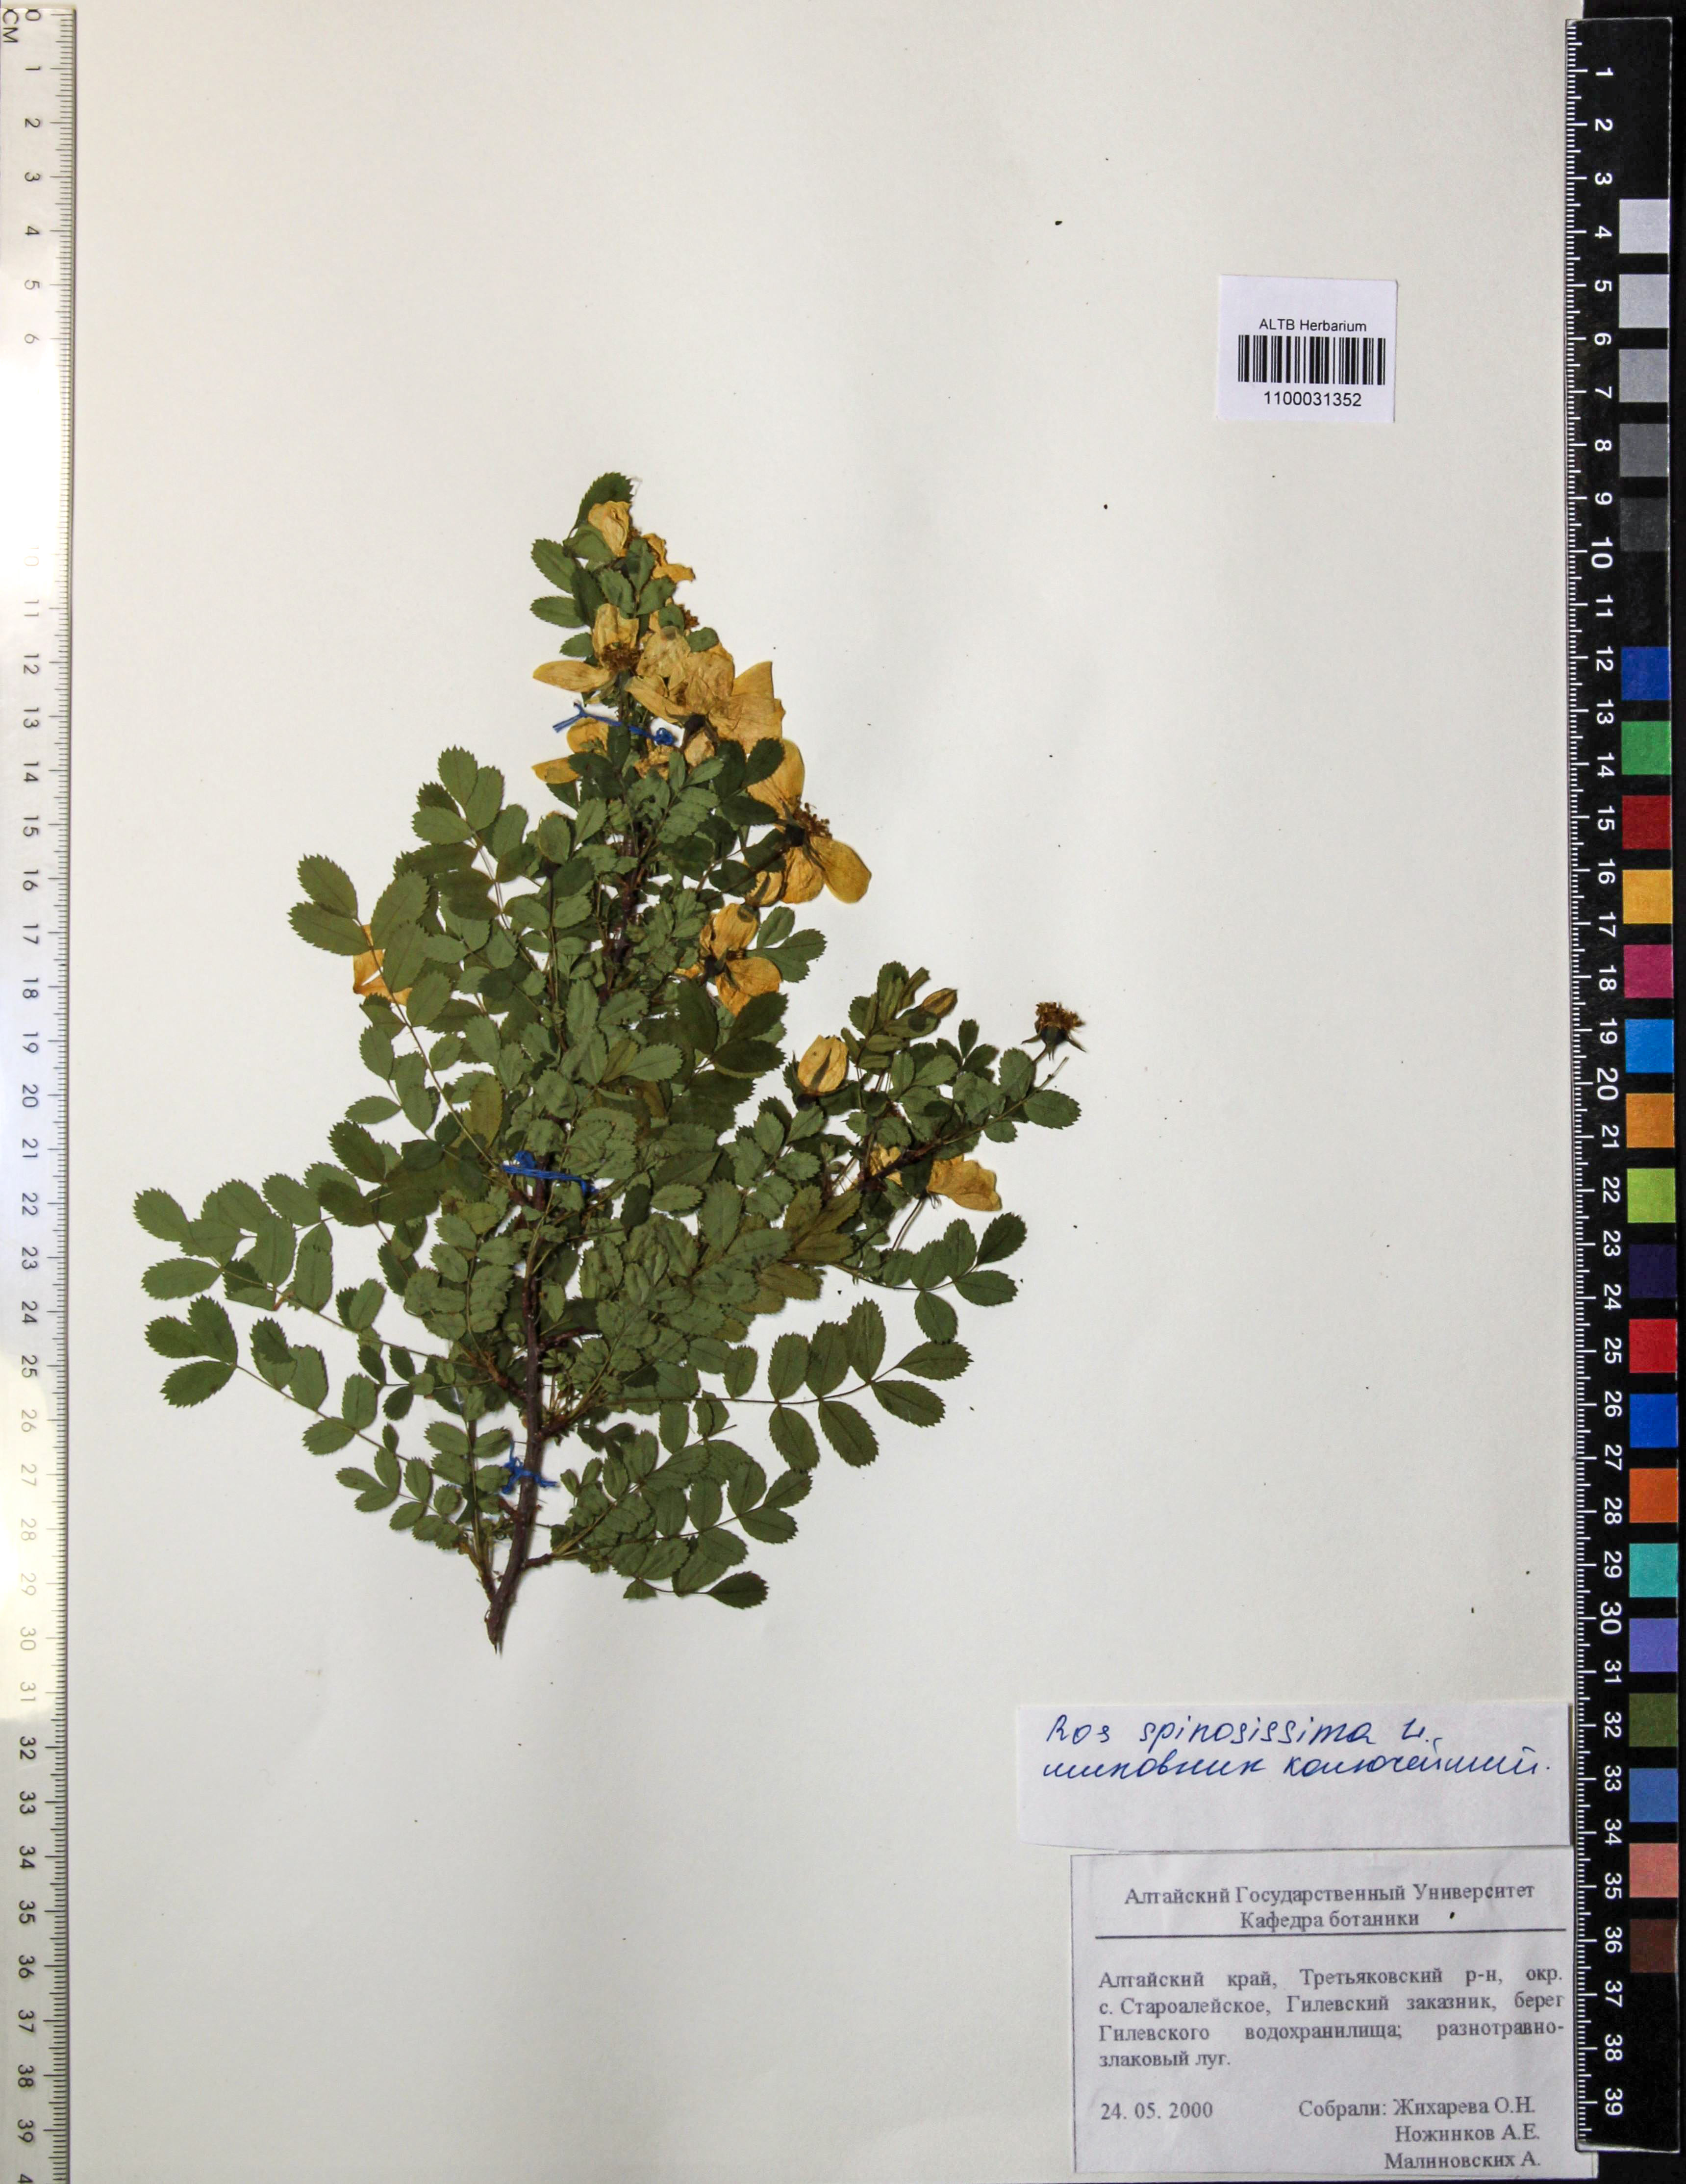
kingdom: Plantae
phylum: Tracheophyta
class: Magnoliopsida
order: Rosales
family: Rosaceae
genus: Rosa
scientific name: Rosa spinosissima
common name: Burnet rose
